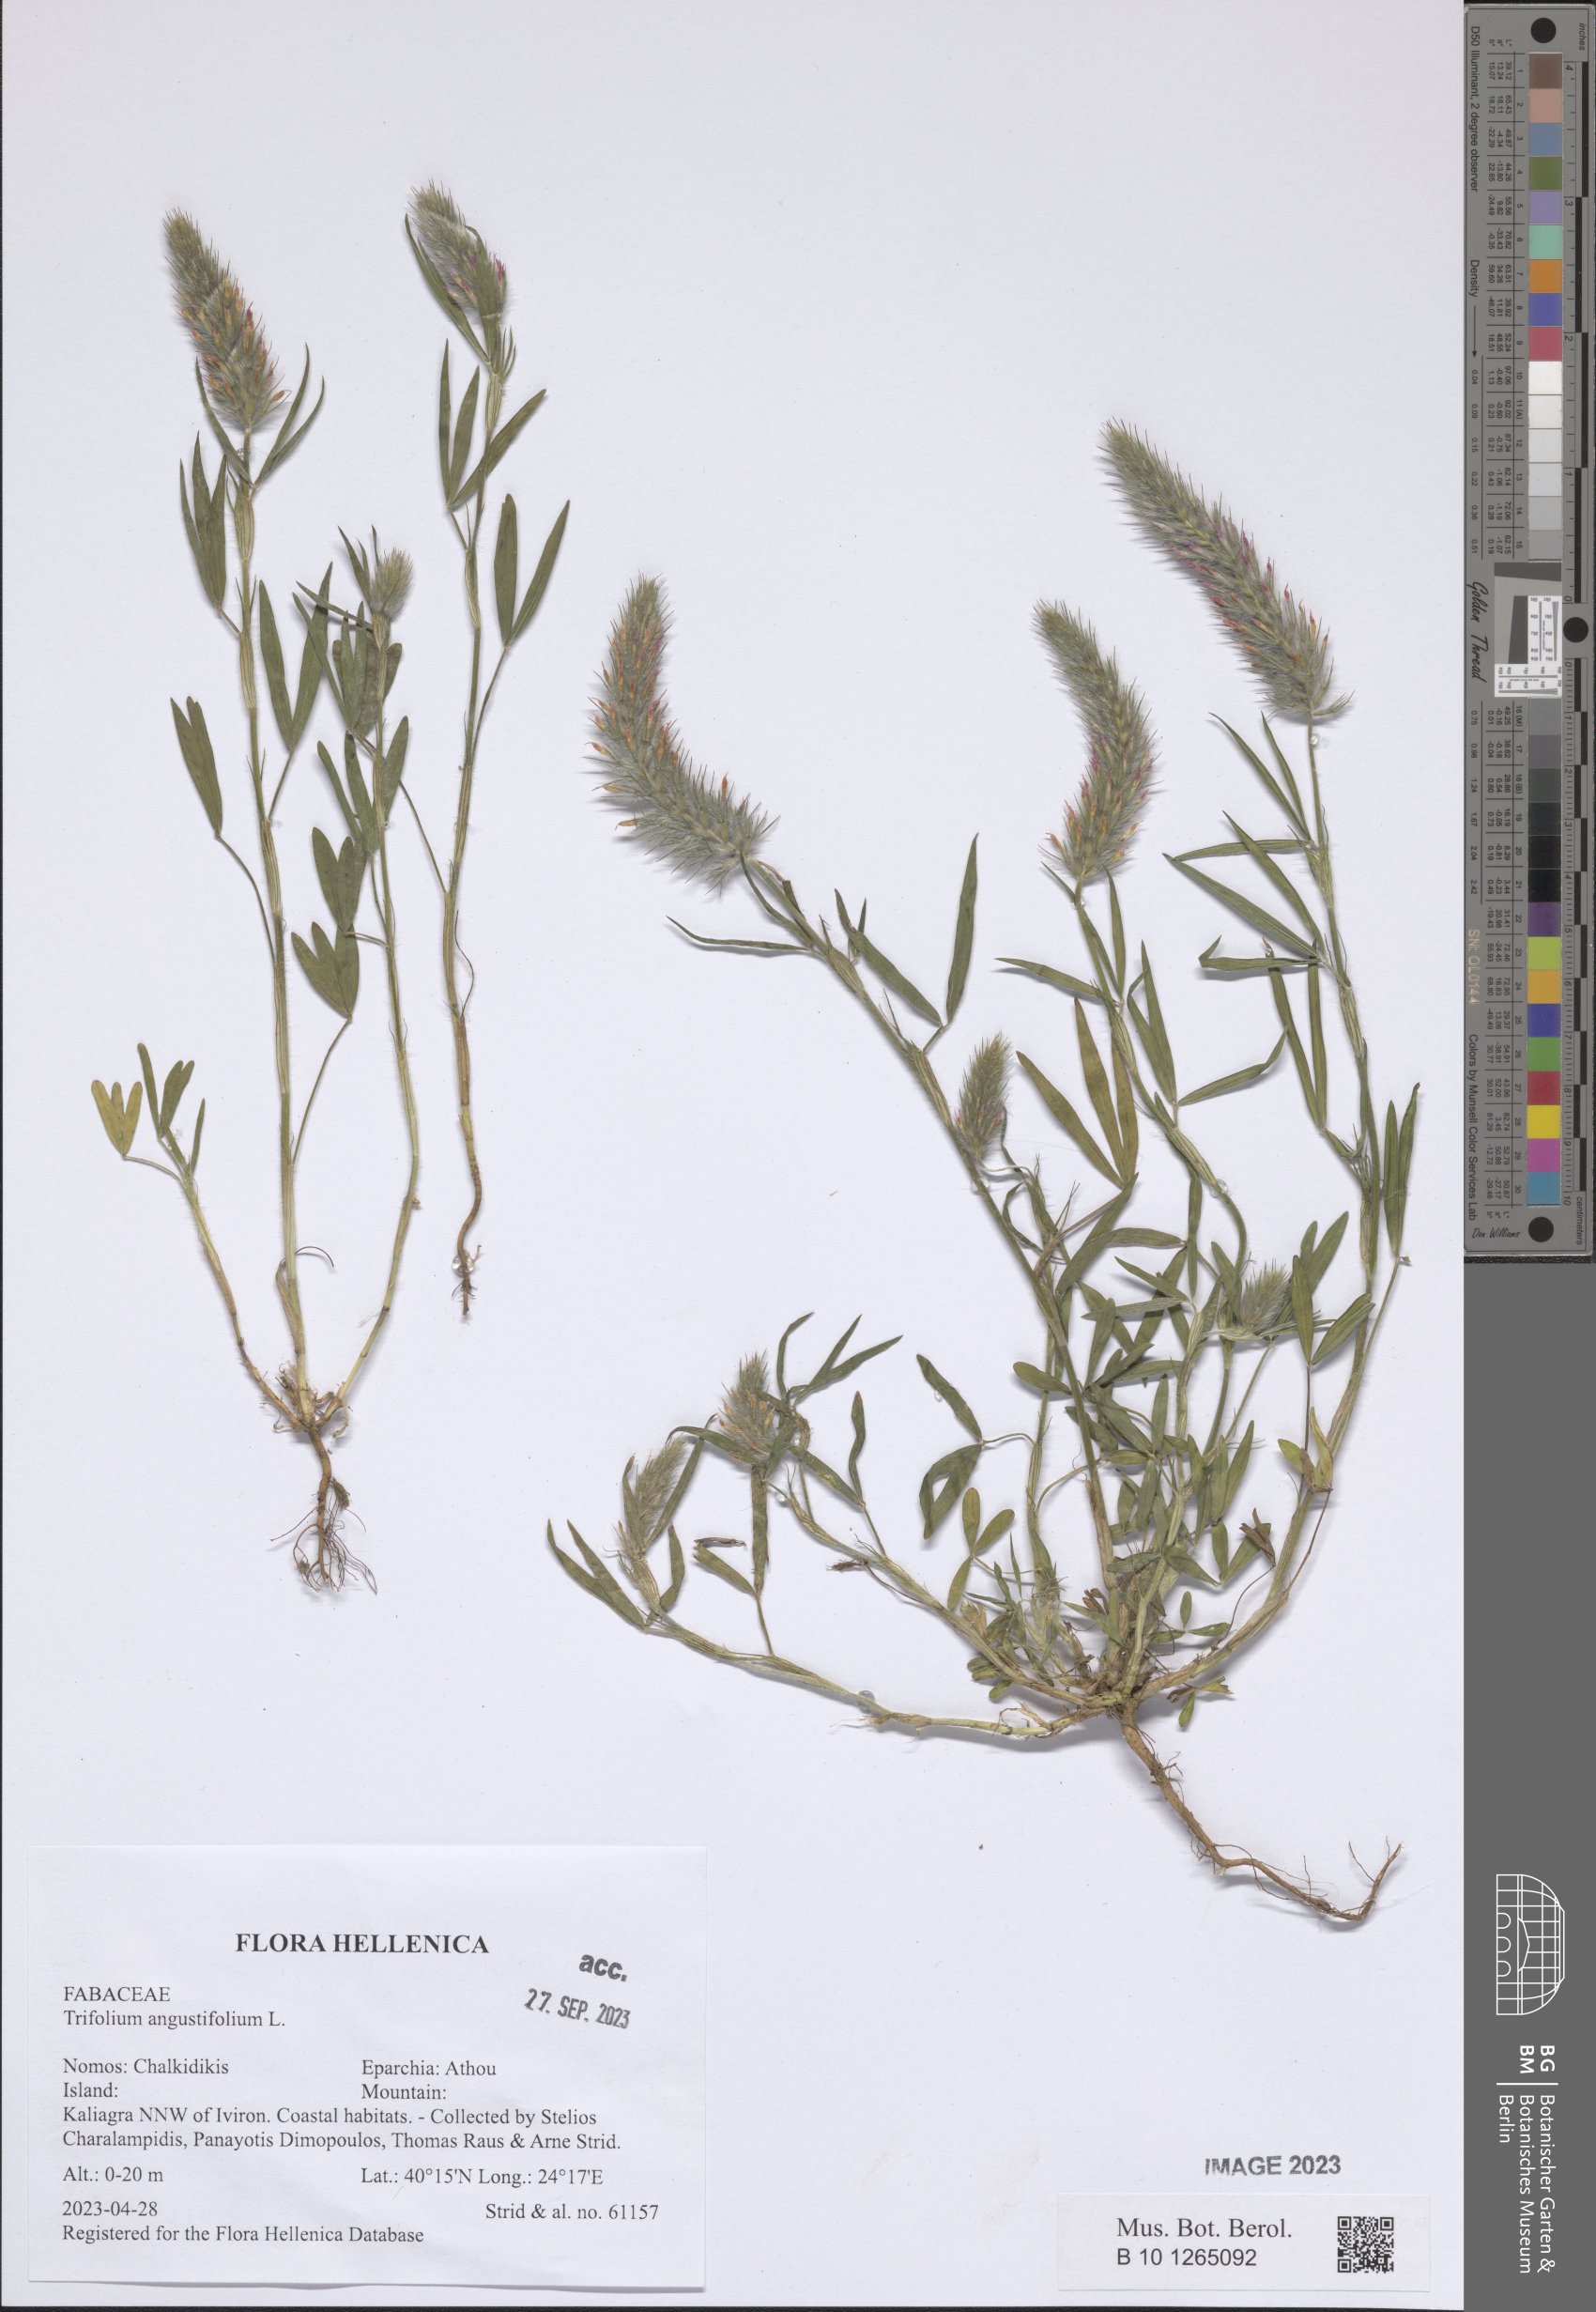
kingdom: Plantae
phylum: Tracheophyta
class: Magnoliopsida
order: Fabales
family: Fabaceae
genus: Trifolium
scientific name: Trifolium angustifolium
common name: Narrow clover
